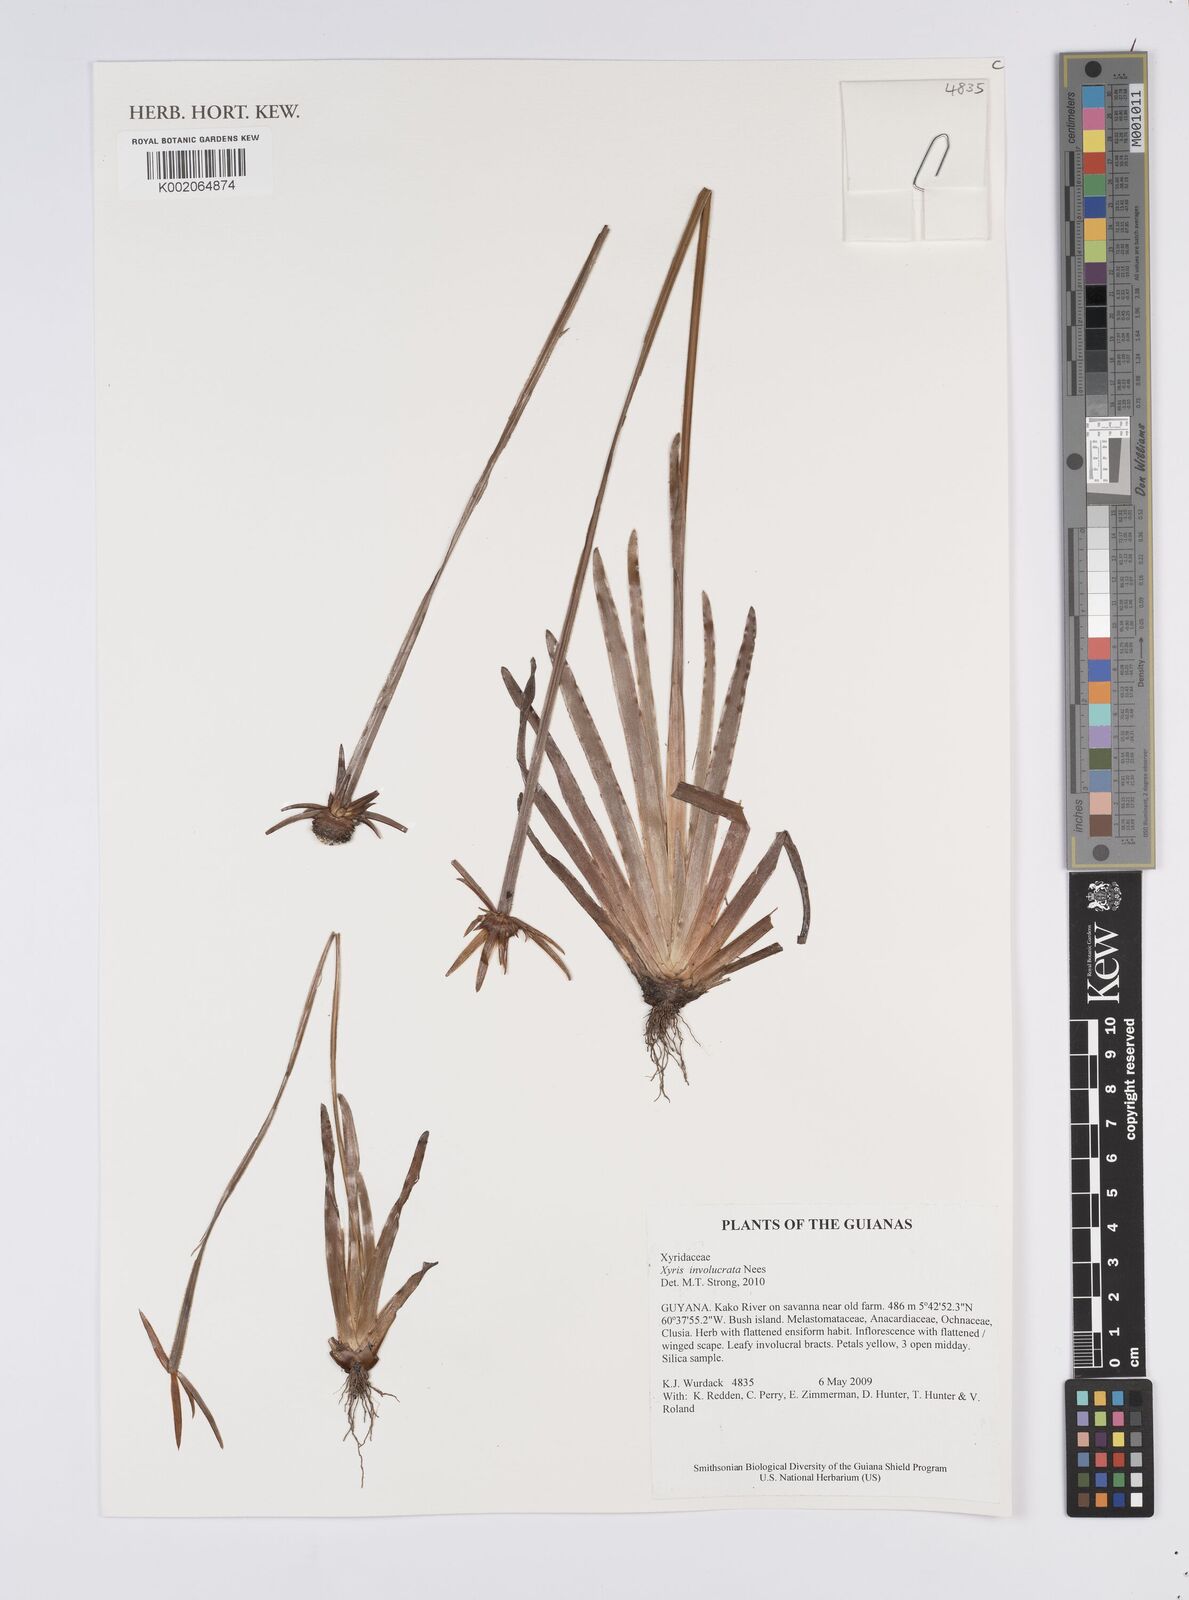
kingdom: Plantae
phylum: Tracheophyta
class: Liliopsida
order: Poales
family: Xyridaceae
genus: Xyris
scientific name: Xyris involucrata
